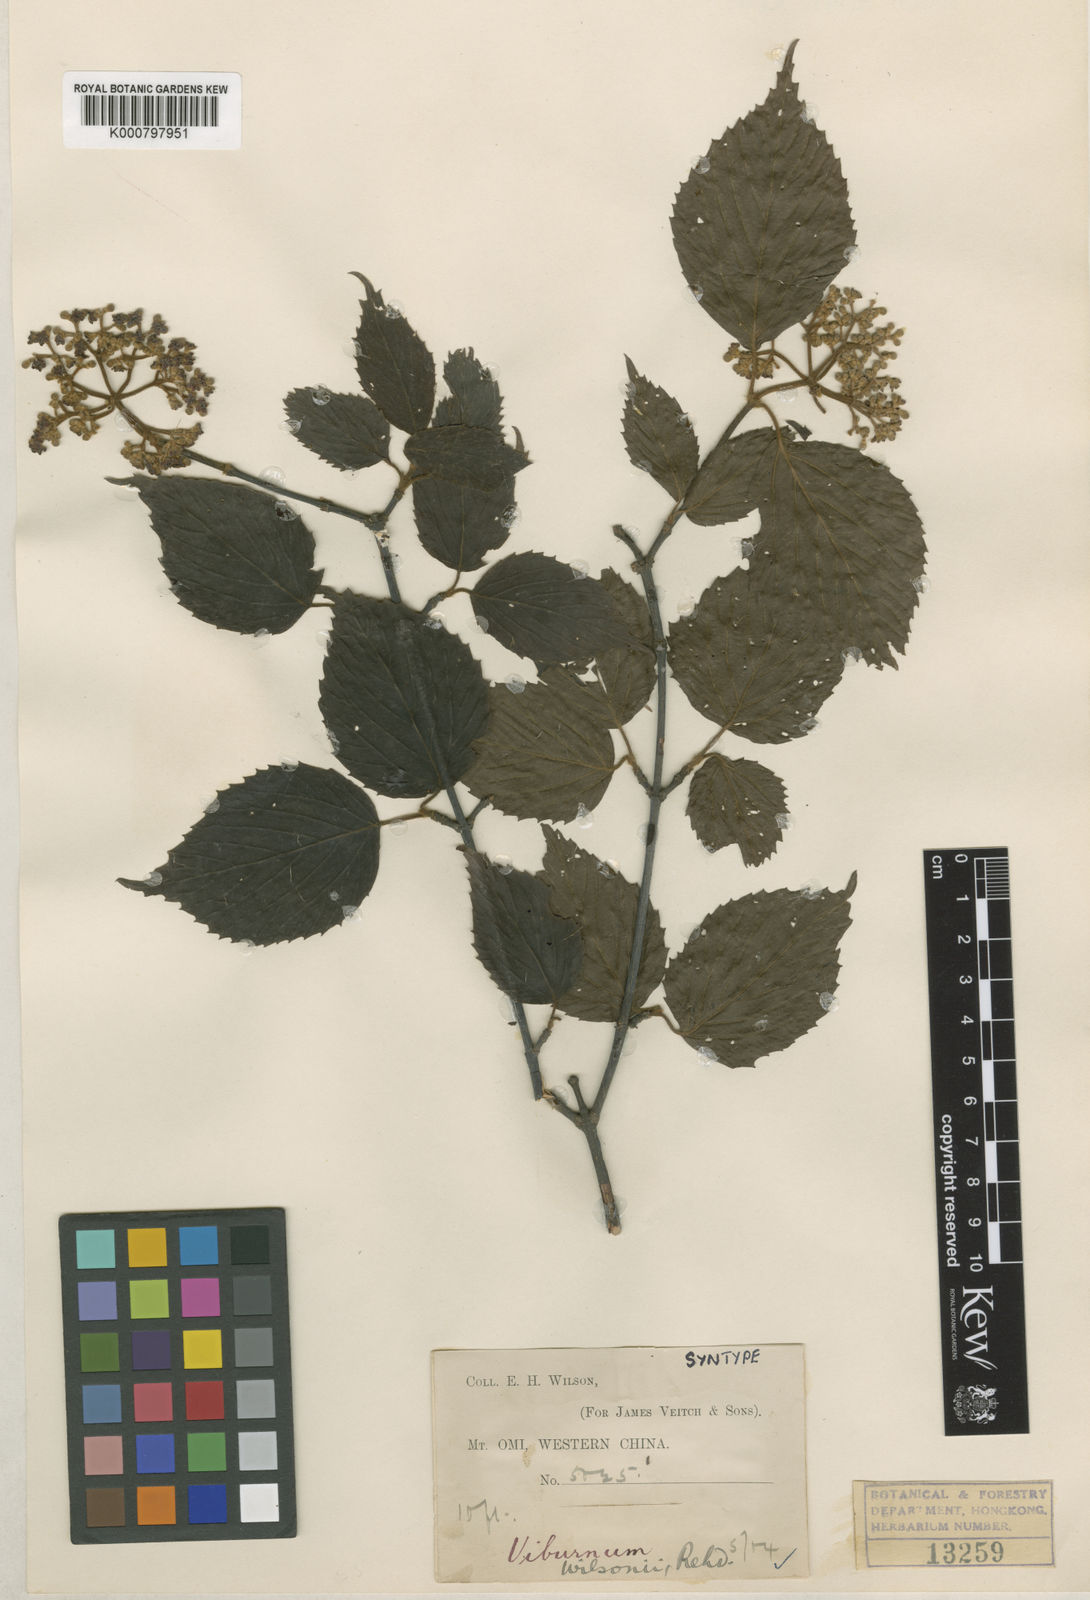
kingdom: Plantae
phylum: Tracheophyta
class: Magnoliopsida
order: Dipsacales
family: Viburnaceae
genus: Viburnum
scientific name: Viburnum betulifolium
